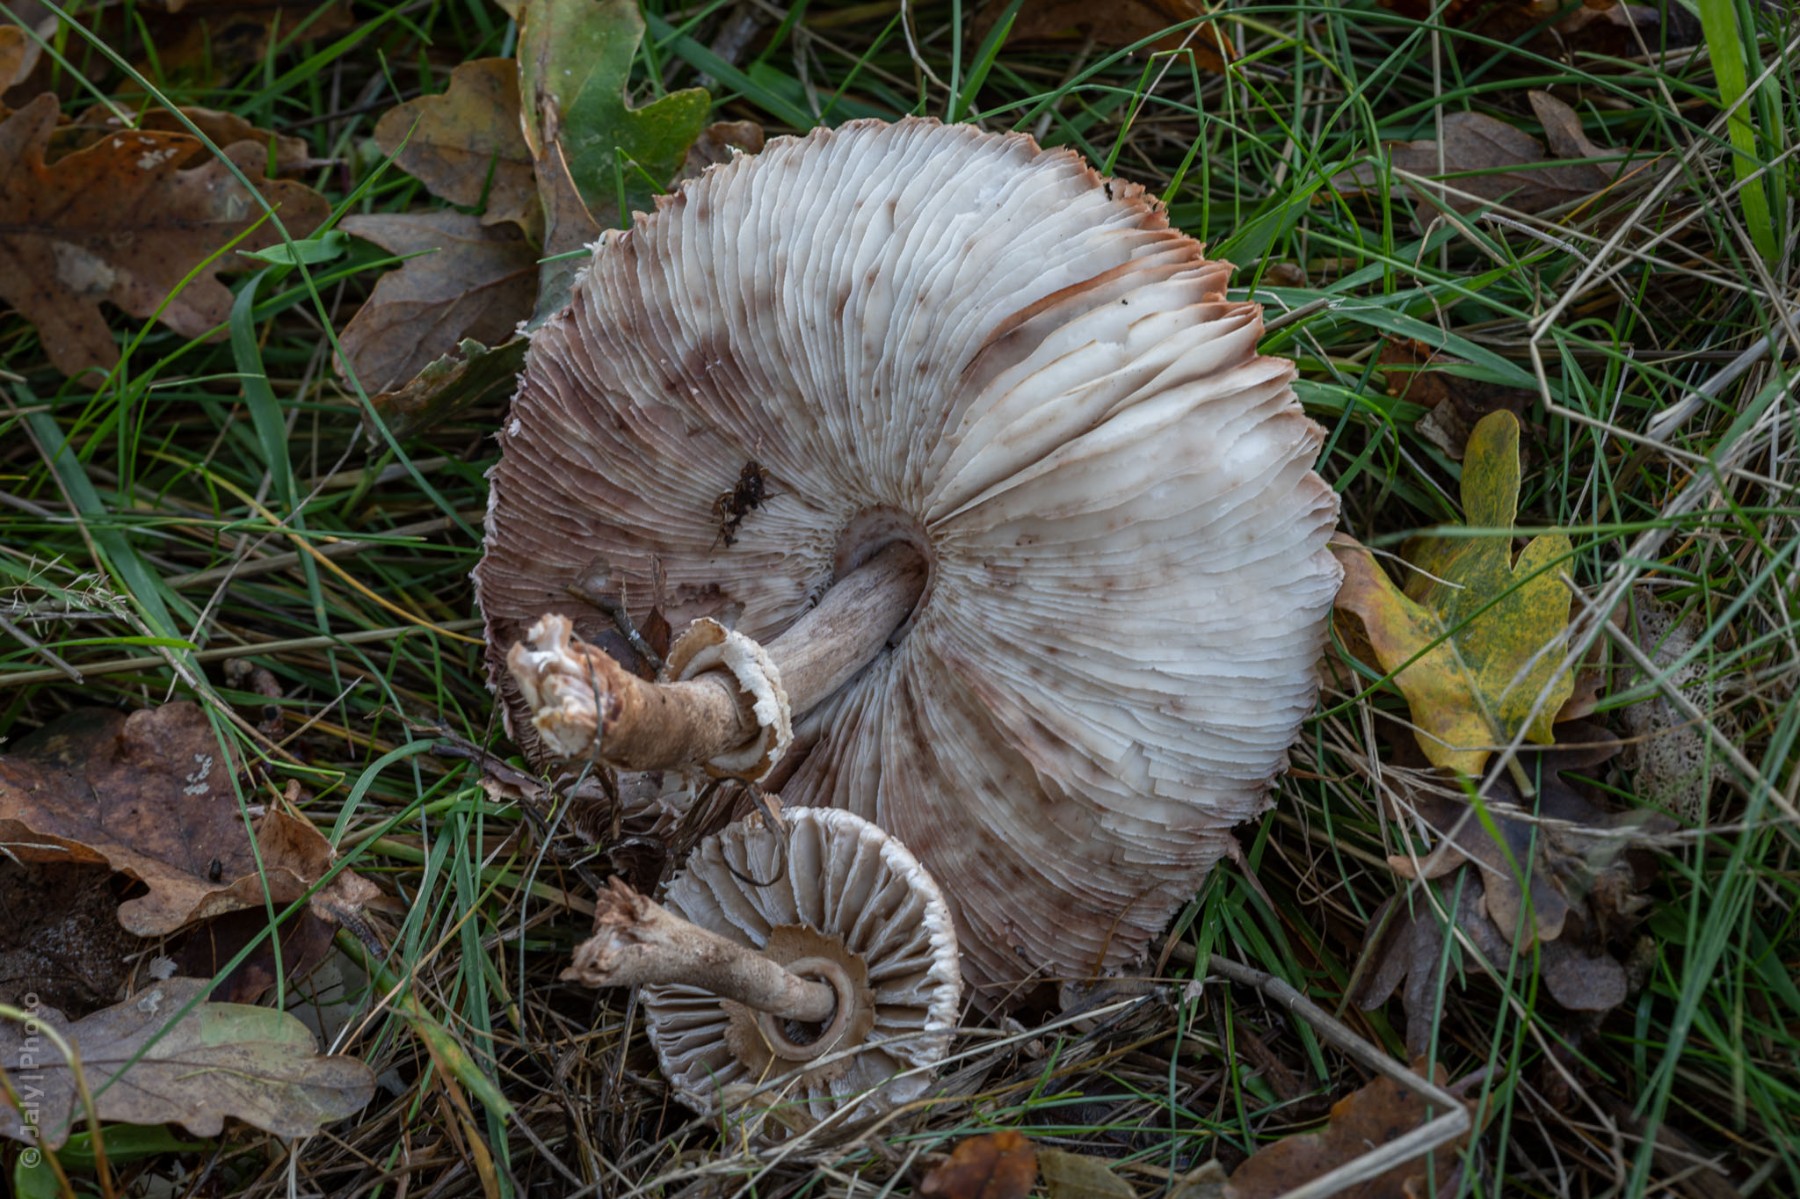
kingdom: Fungi
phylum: Basidiomycota
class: Agaricomycetes
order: Agaricales
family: Agaricaceae
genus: Macrolepiota
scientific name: Macrolepiota
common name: kæmpeparasolhat
